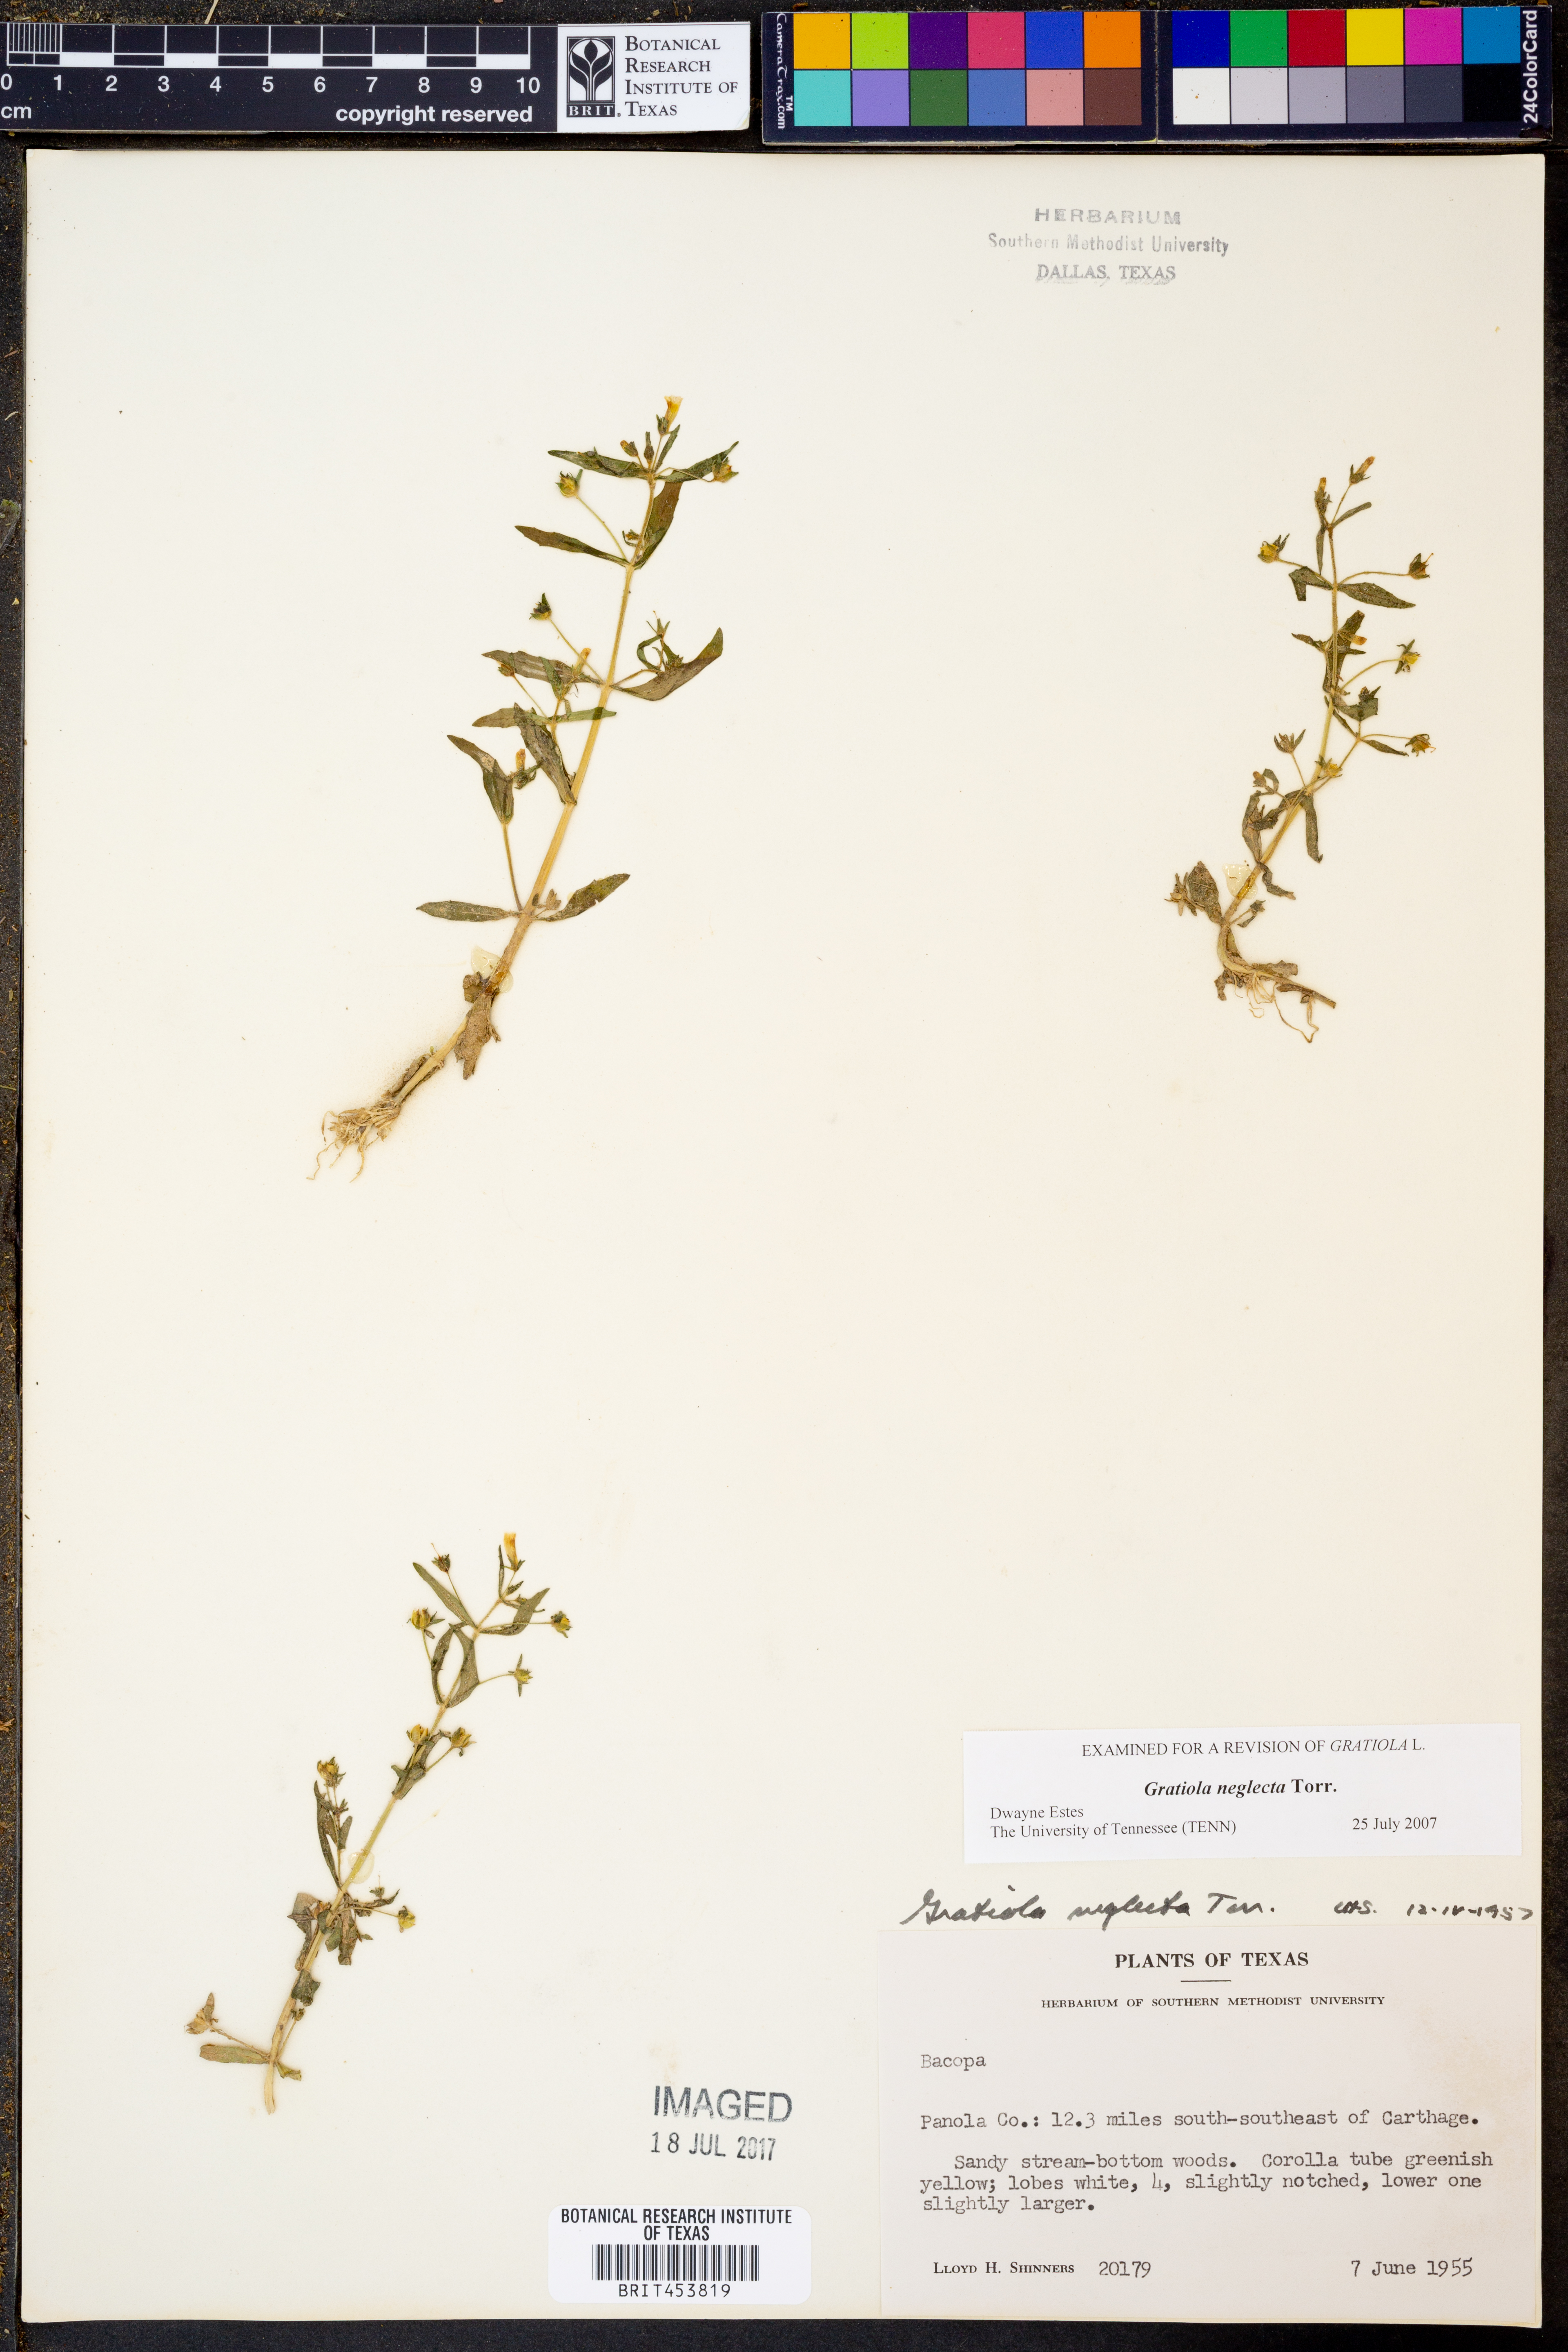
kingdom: Plantae
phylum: Tracheophyta
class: Magnoliopsida
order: Lamiales
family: Plantaginaceae
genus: Gratiola
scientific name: Gratiola neglecta
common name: American hedge-hyssop
